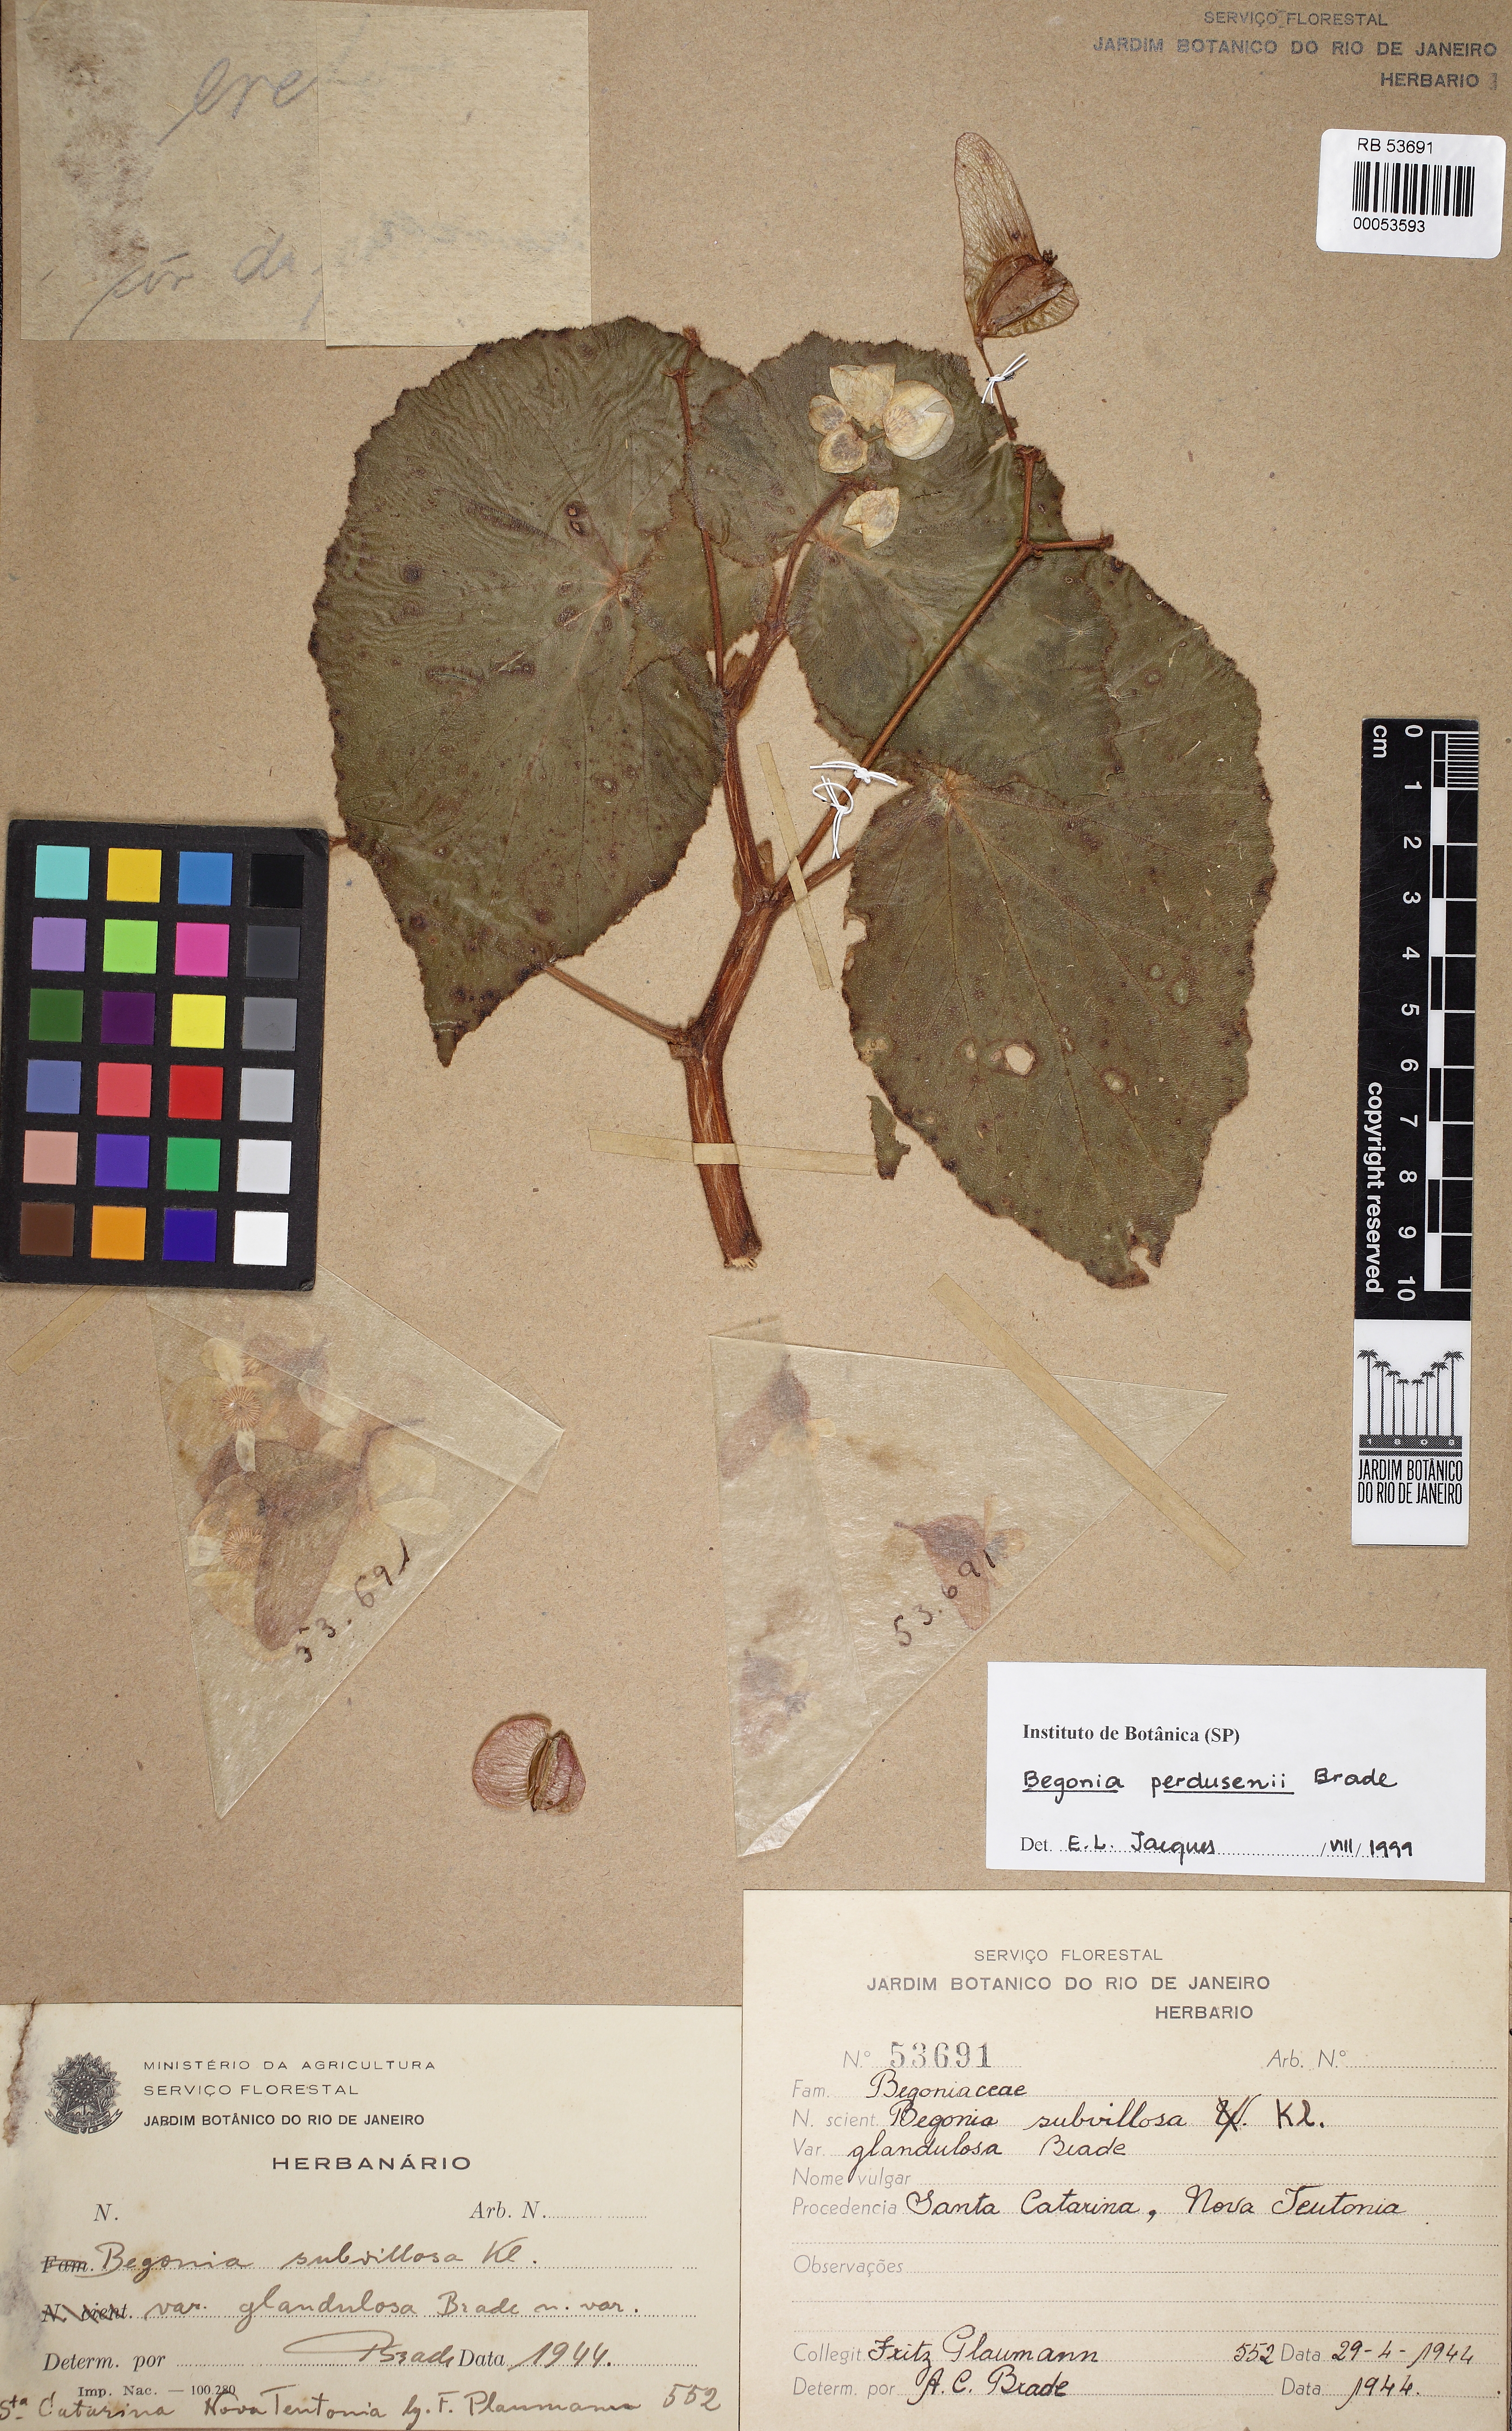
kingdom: Plantae
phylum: Tracheophyta
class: Magnoliopsida
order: Cucurbitales
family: Begoniaceae
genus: Begonia
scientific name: Begonia perdusenii
